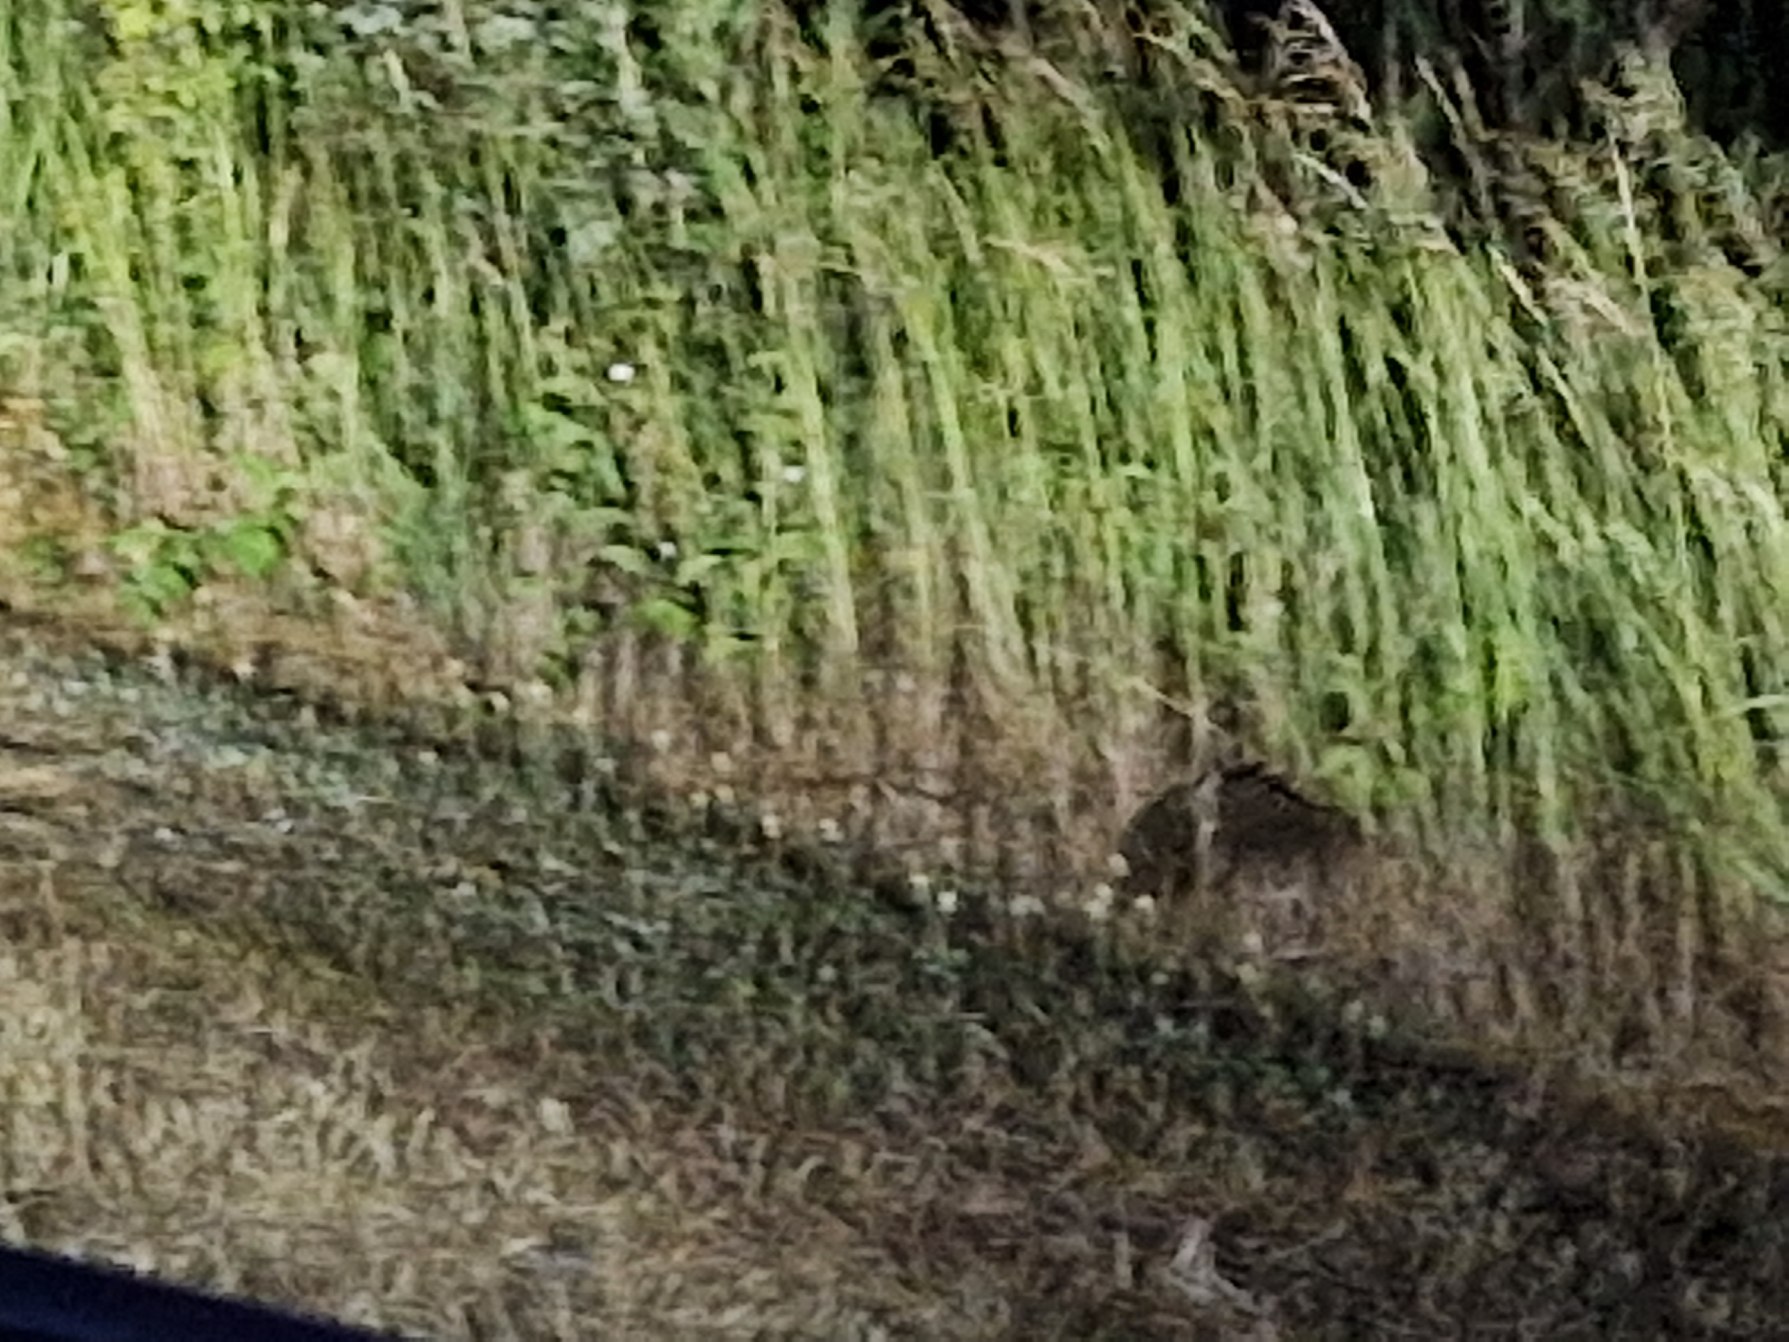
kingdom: Animalia
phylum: Chordata
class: Mammalia
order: Erinaceomorpha
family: Erinaceidae
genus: Erinaceus
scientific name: Erinaceus europaeus
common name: Pindsvin
